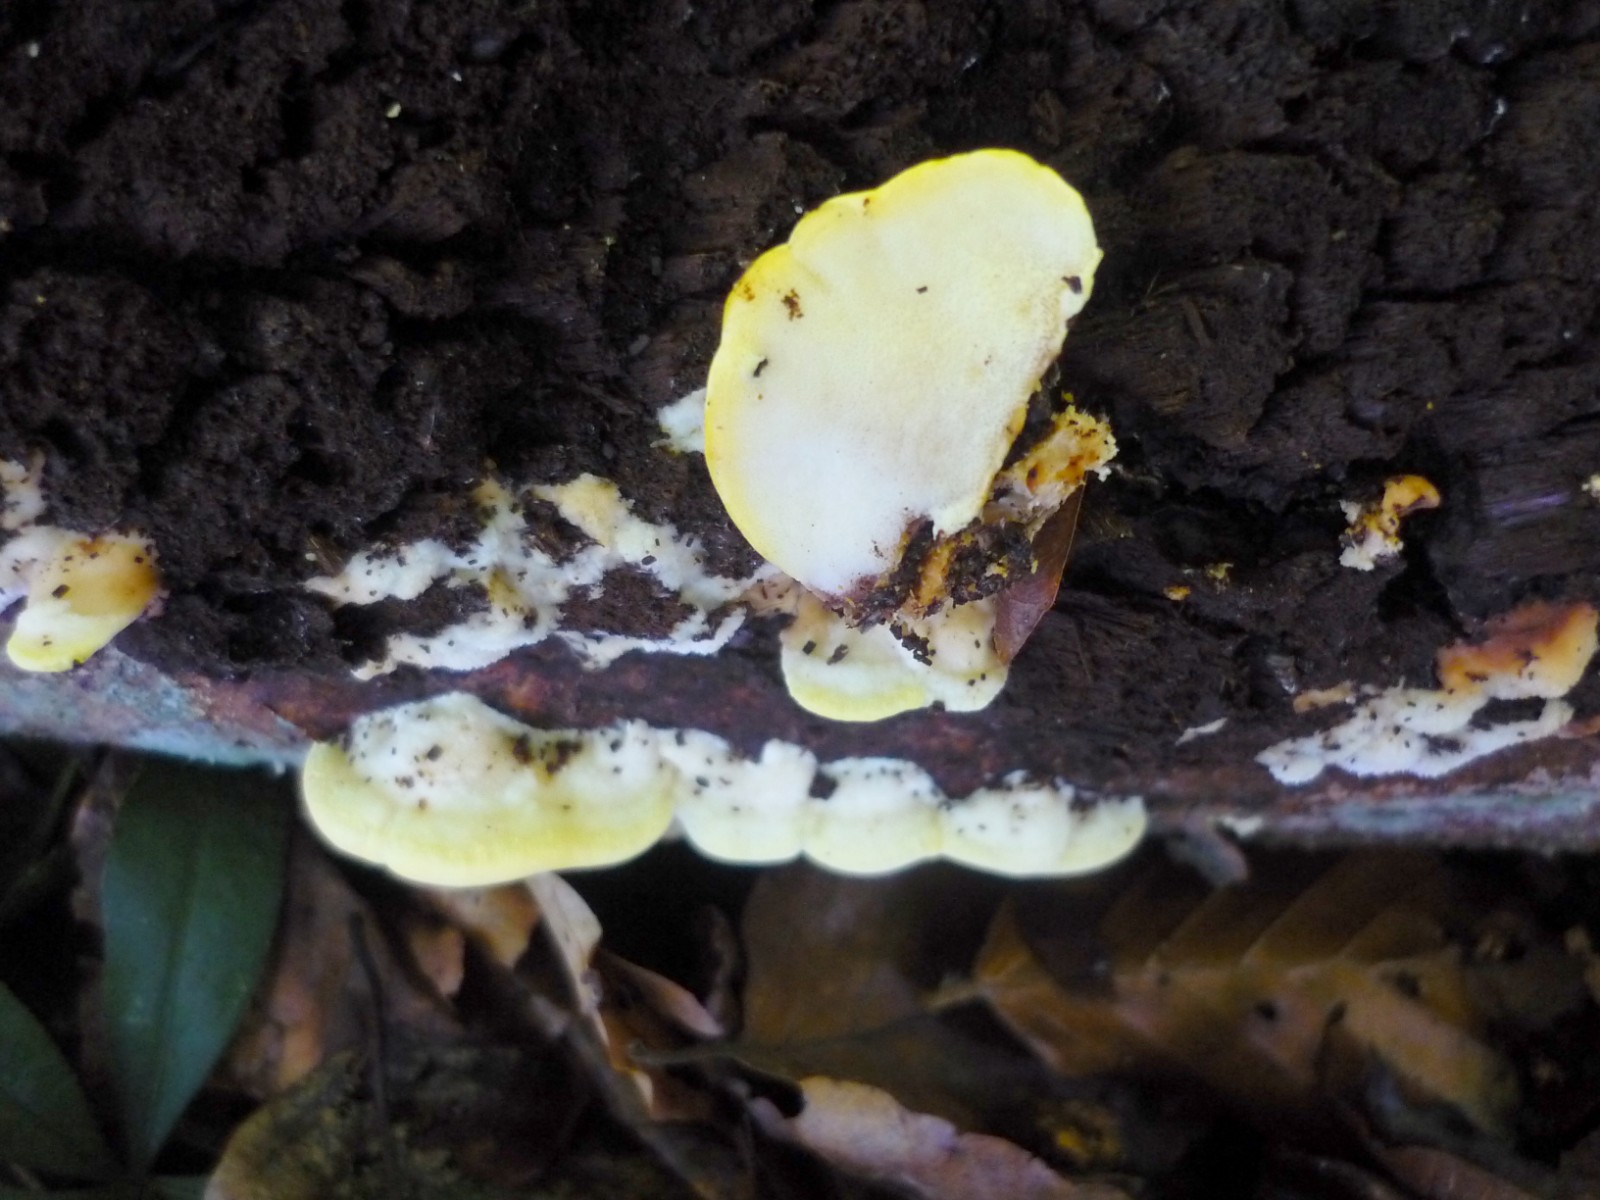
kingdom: Fungi
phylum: Basidiomycota
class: Agaricomycetes
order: Polyporales
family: Steccherinaceae
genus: Antrodiella
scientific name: Antrodiella serpula
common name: gulrandet elastikporesvamp
